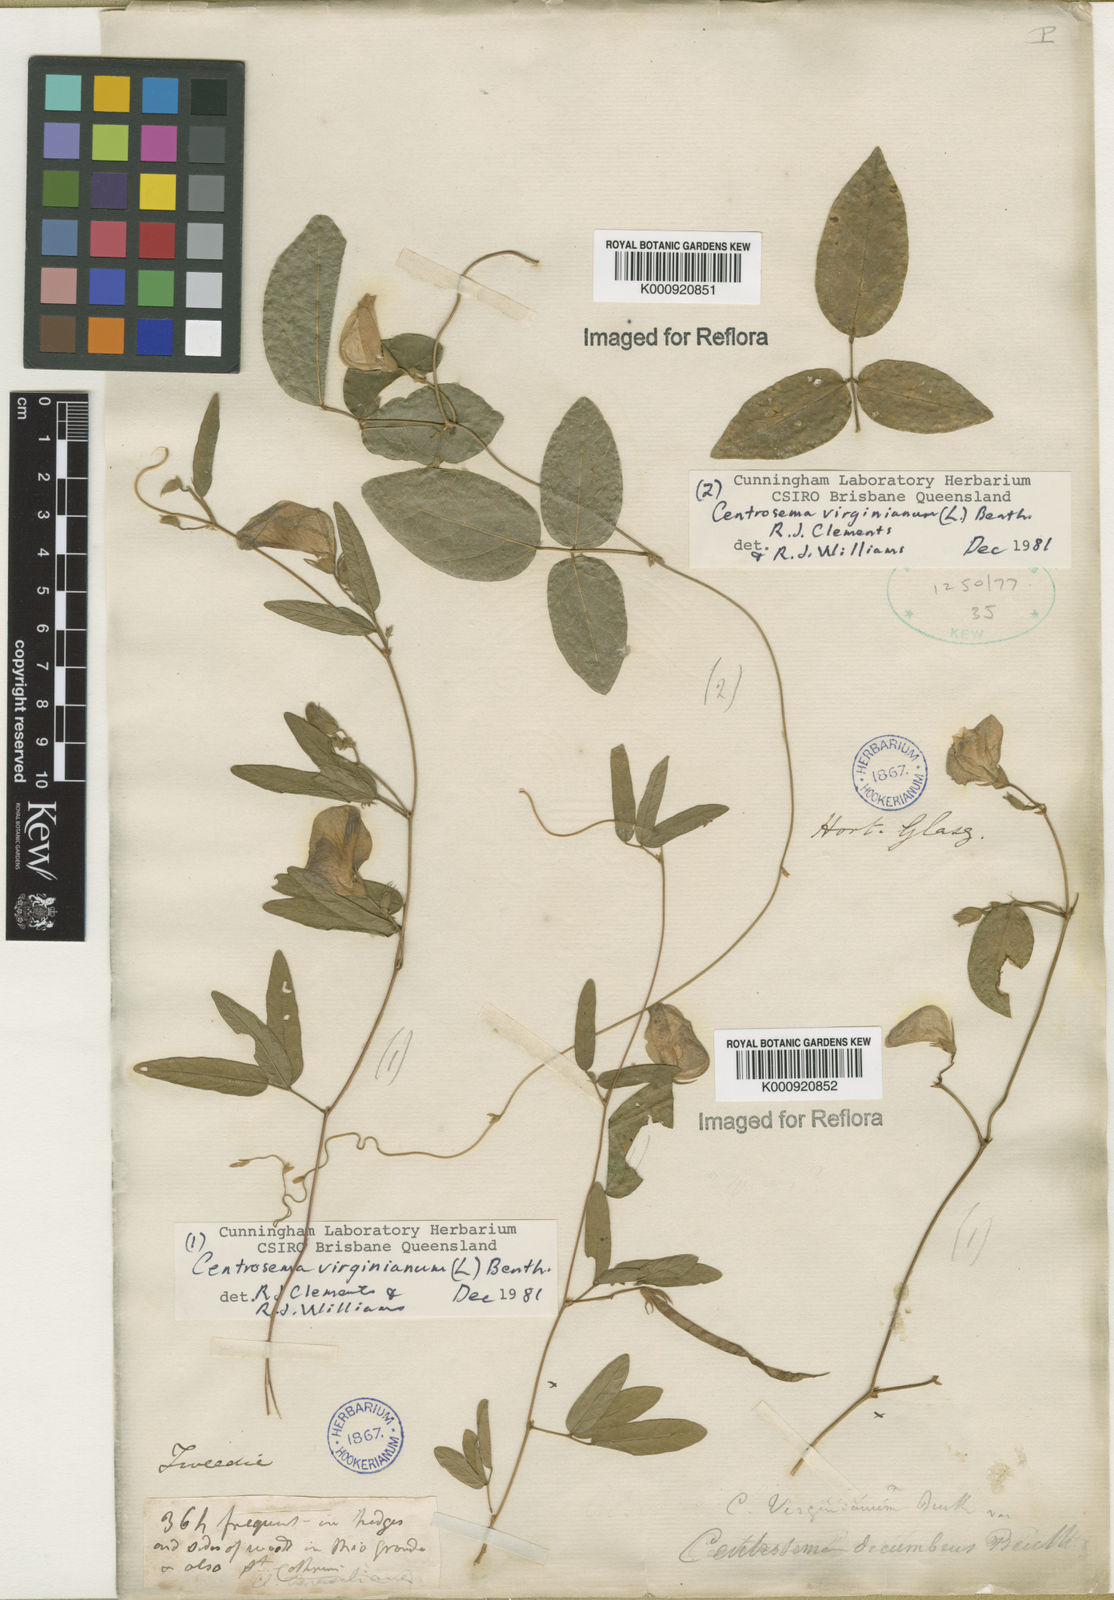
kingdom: Plantae
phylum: Tracheophyta
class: Magnoliopsida
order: Fabales
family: Fabaceae
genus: Centrosema
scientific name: Centrosema virginianum
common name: Butterfly-pea
